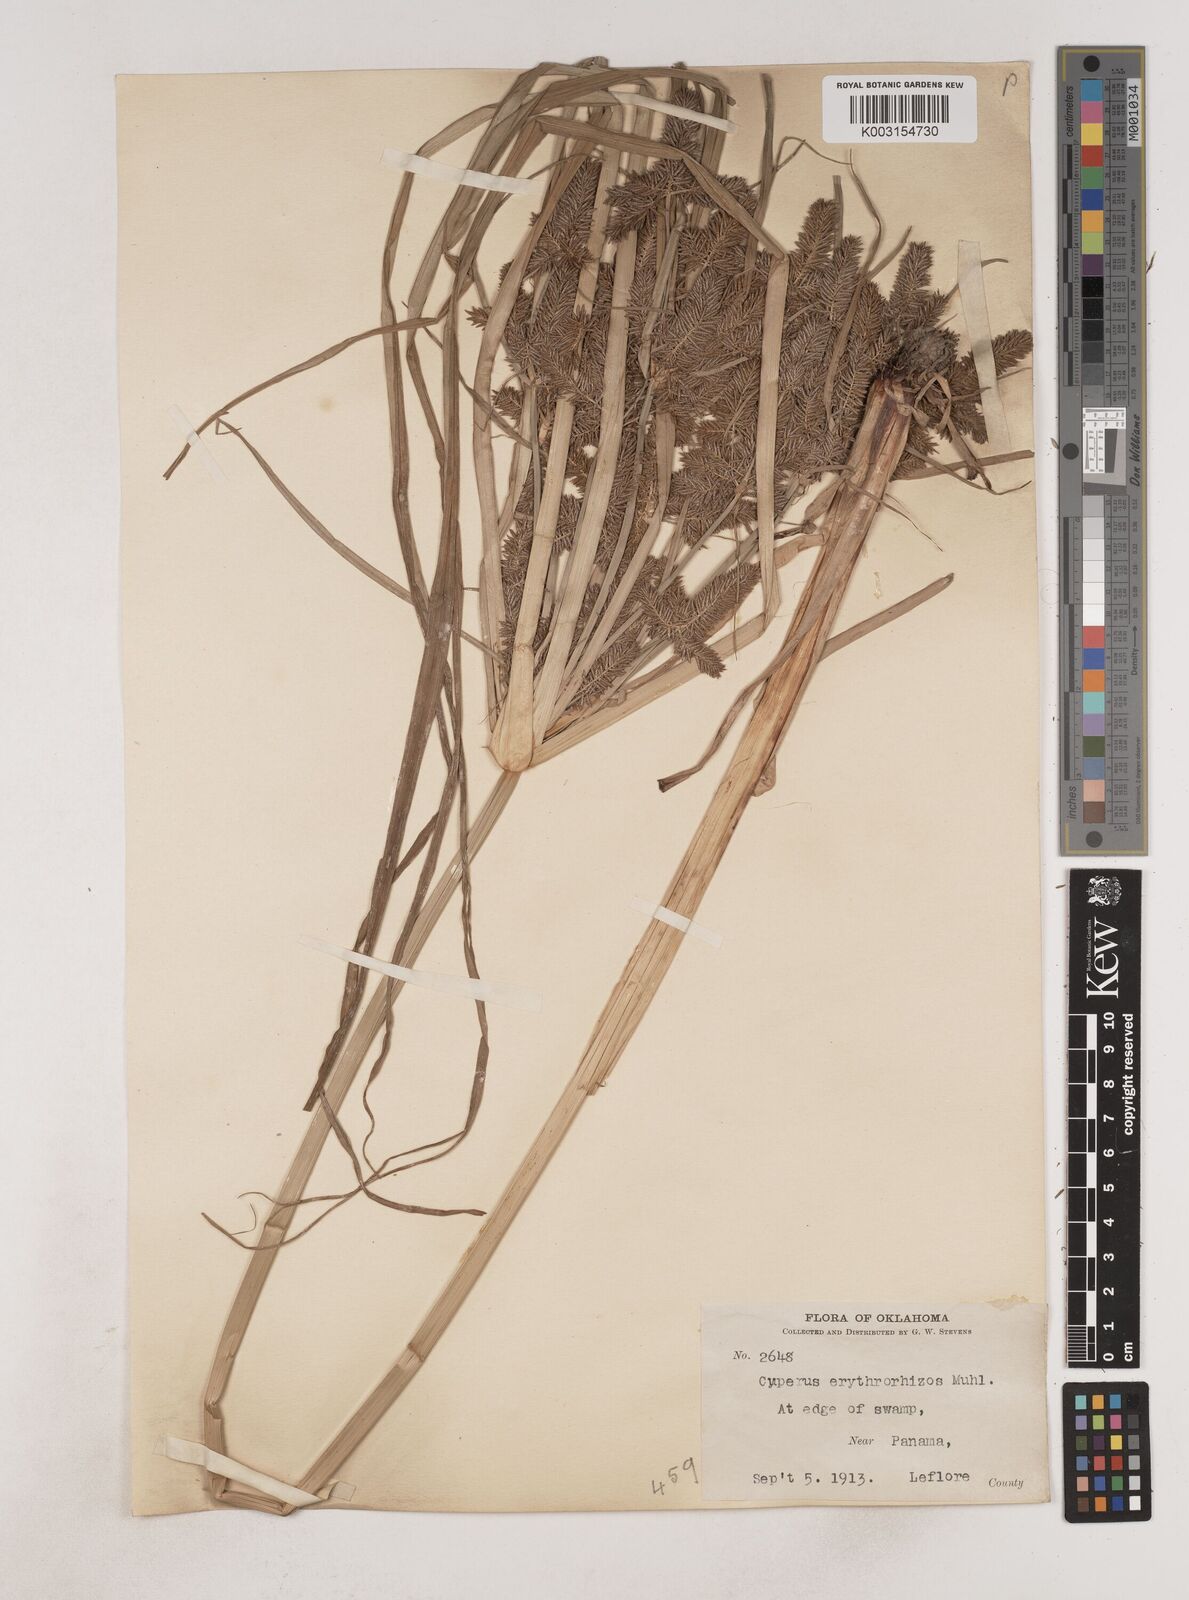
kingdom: Plantae
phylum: Tracheophyta
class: Liliopsida
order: Poales
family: Cyperaceae
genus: Cyperus
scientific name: Cyperus erythrorhizos
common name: Red-root flat sedge
